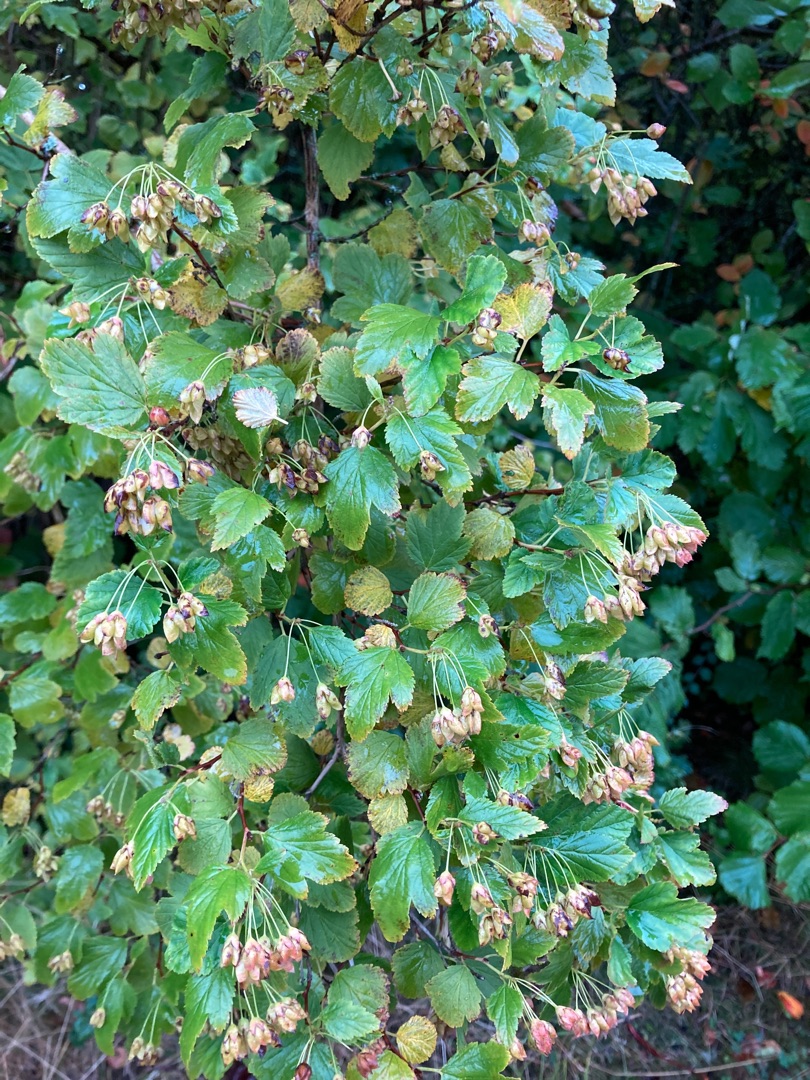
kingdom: Plantae
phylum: Tracheophyta
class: Magnoliopsida
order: Rosales
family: Rosaceae
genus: Physocarpus
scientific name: Physocarpus opulifolius
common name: Almindelig blærespiræa
